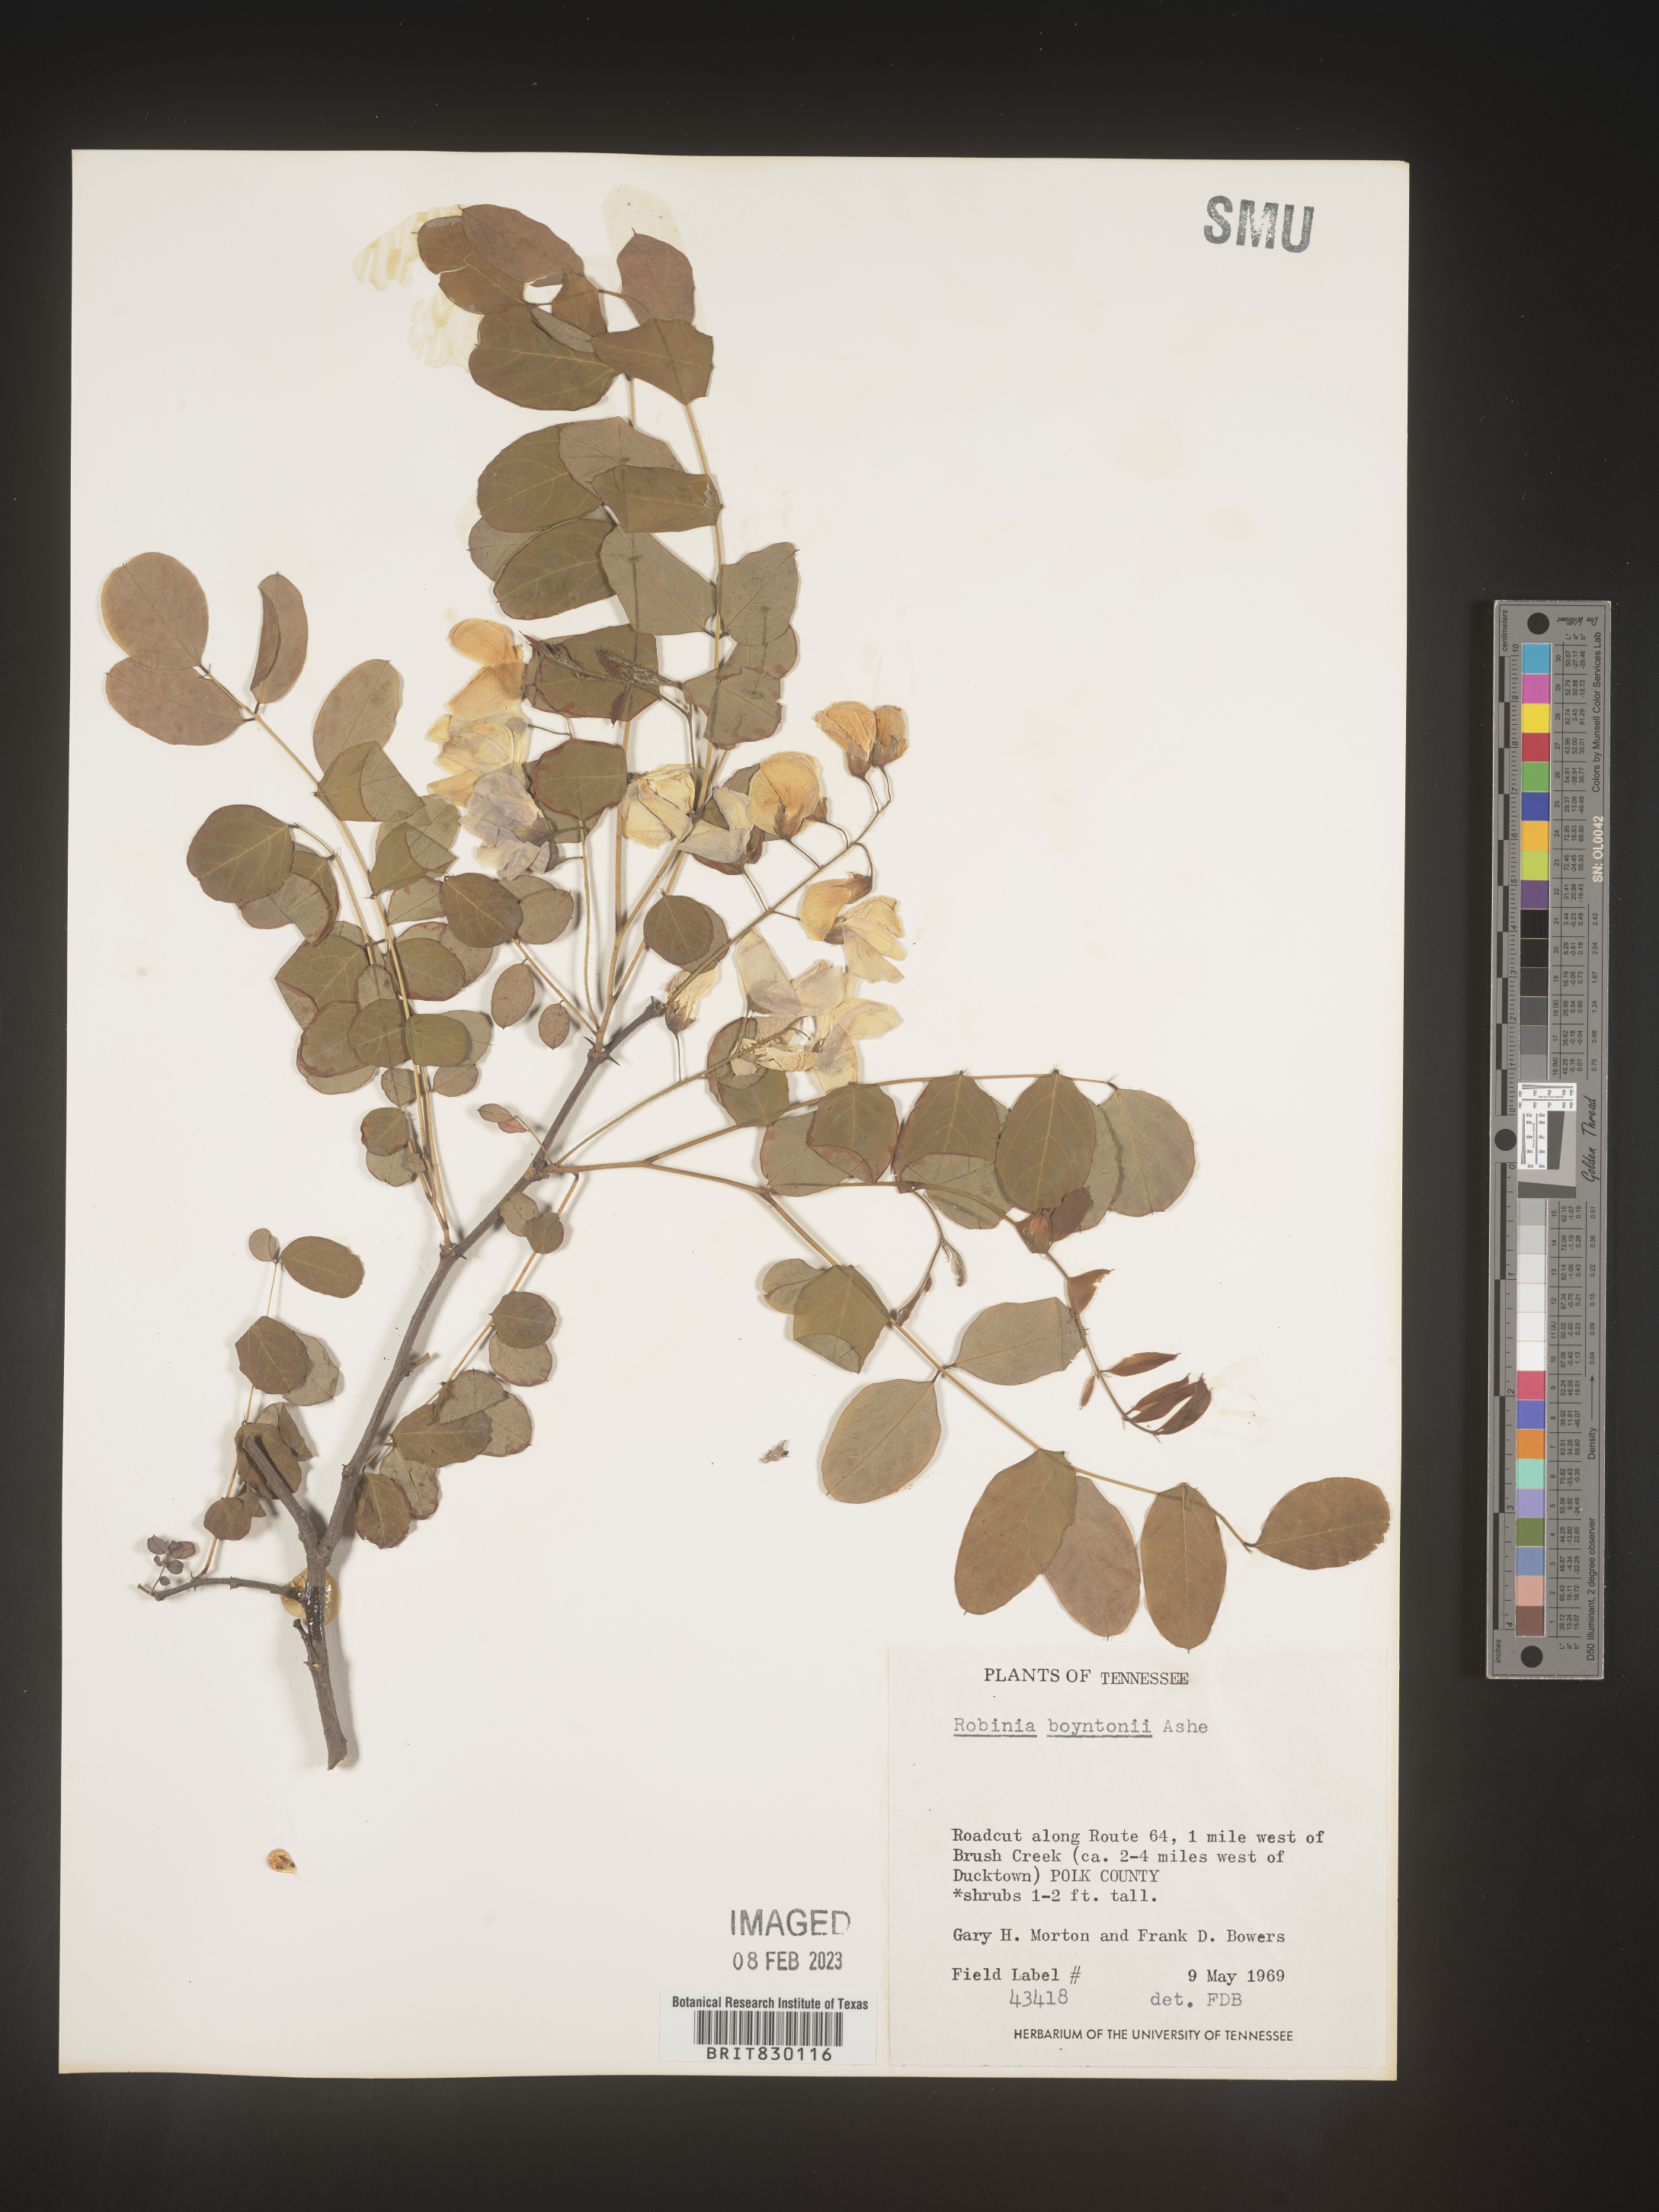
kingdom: Plantae
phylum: Tracheophyta
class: Magnoliopsida
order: Fabales
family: Fabaceae
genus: Robinia
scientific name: Robinia
